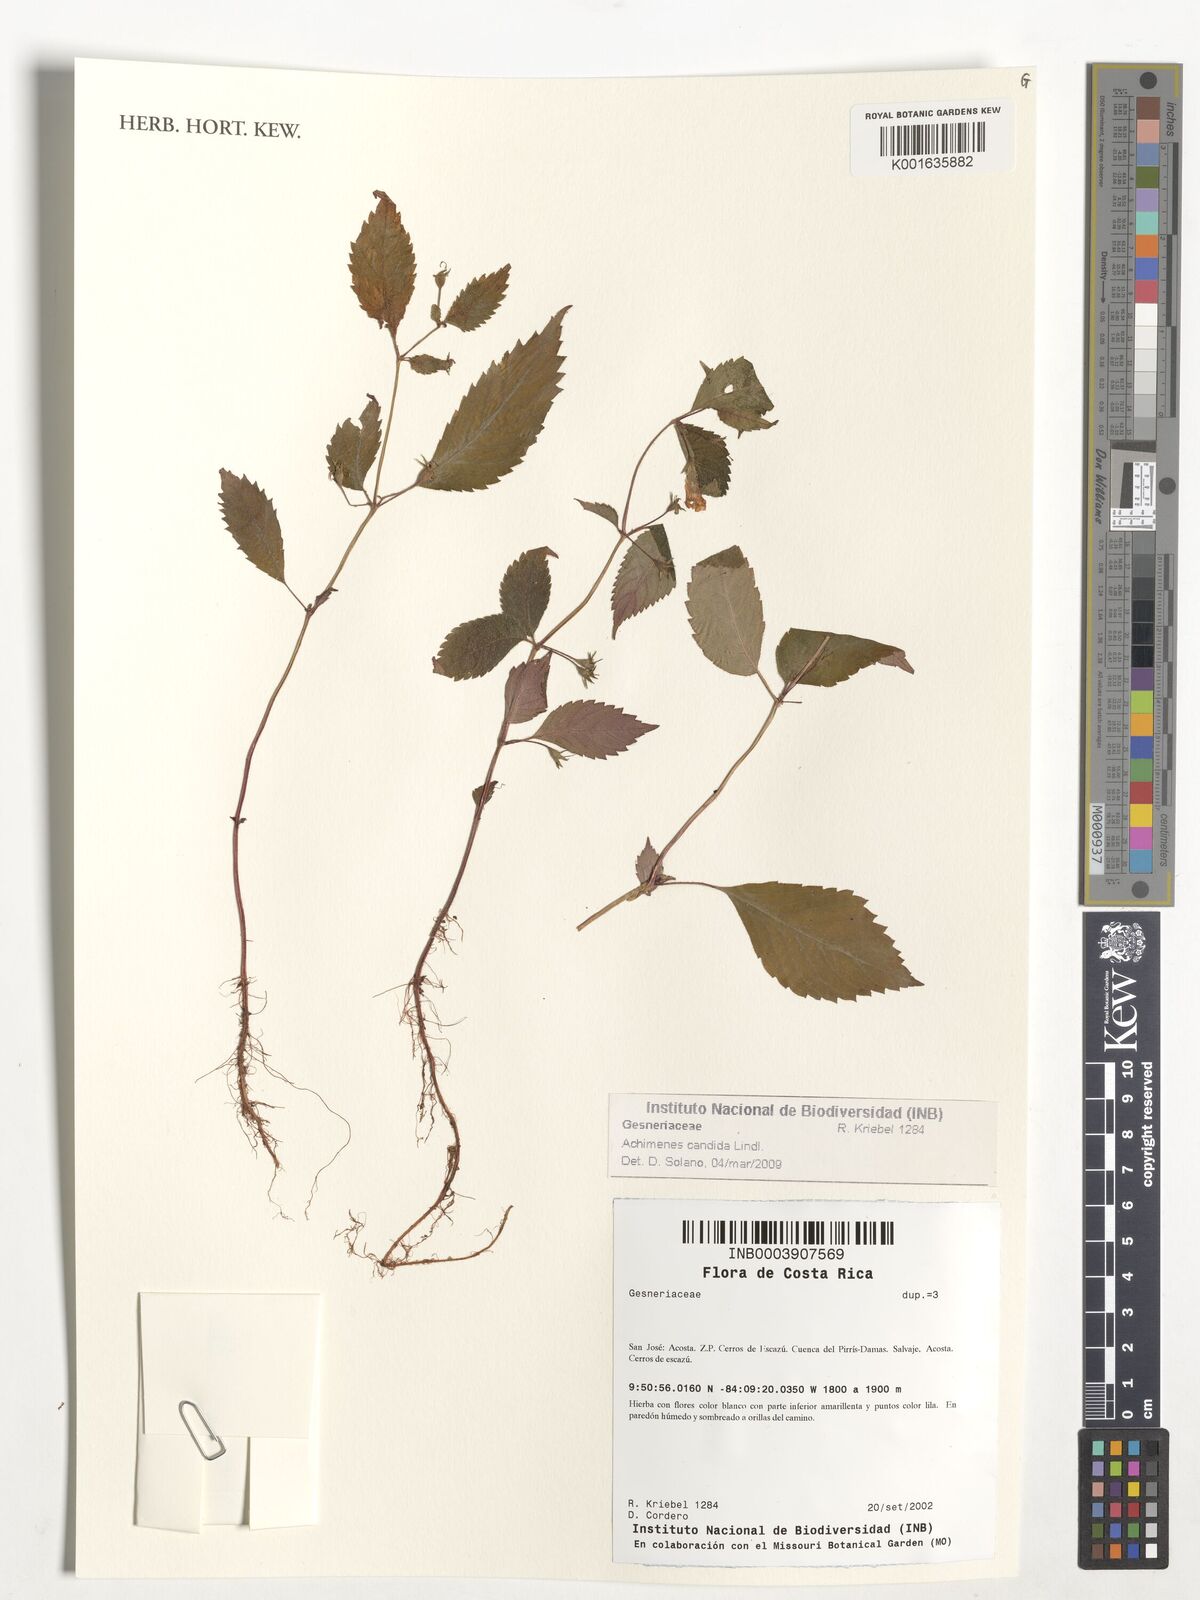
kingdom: Plantae
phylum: Tracheophyta
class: Magnoliopsida
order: Lamiales
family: Gesneriaceae
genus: Achimenes
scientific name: Achimenes candida
